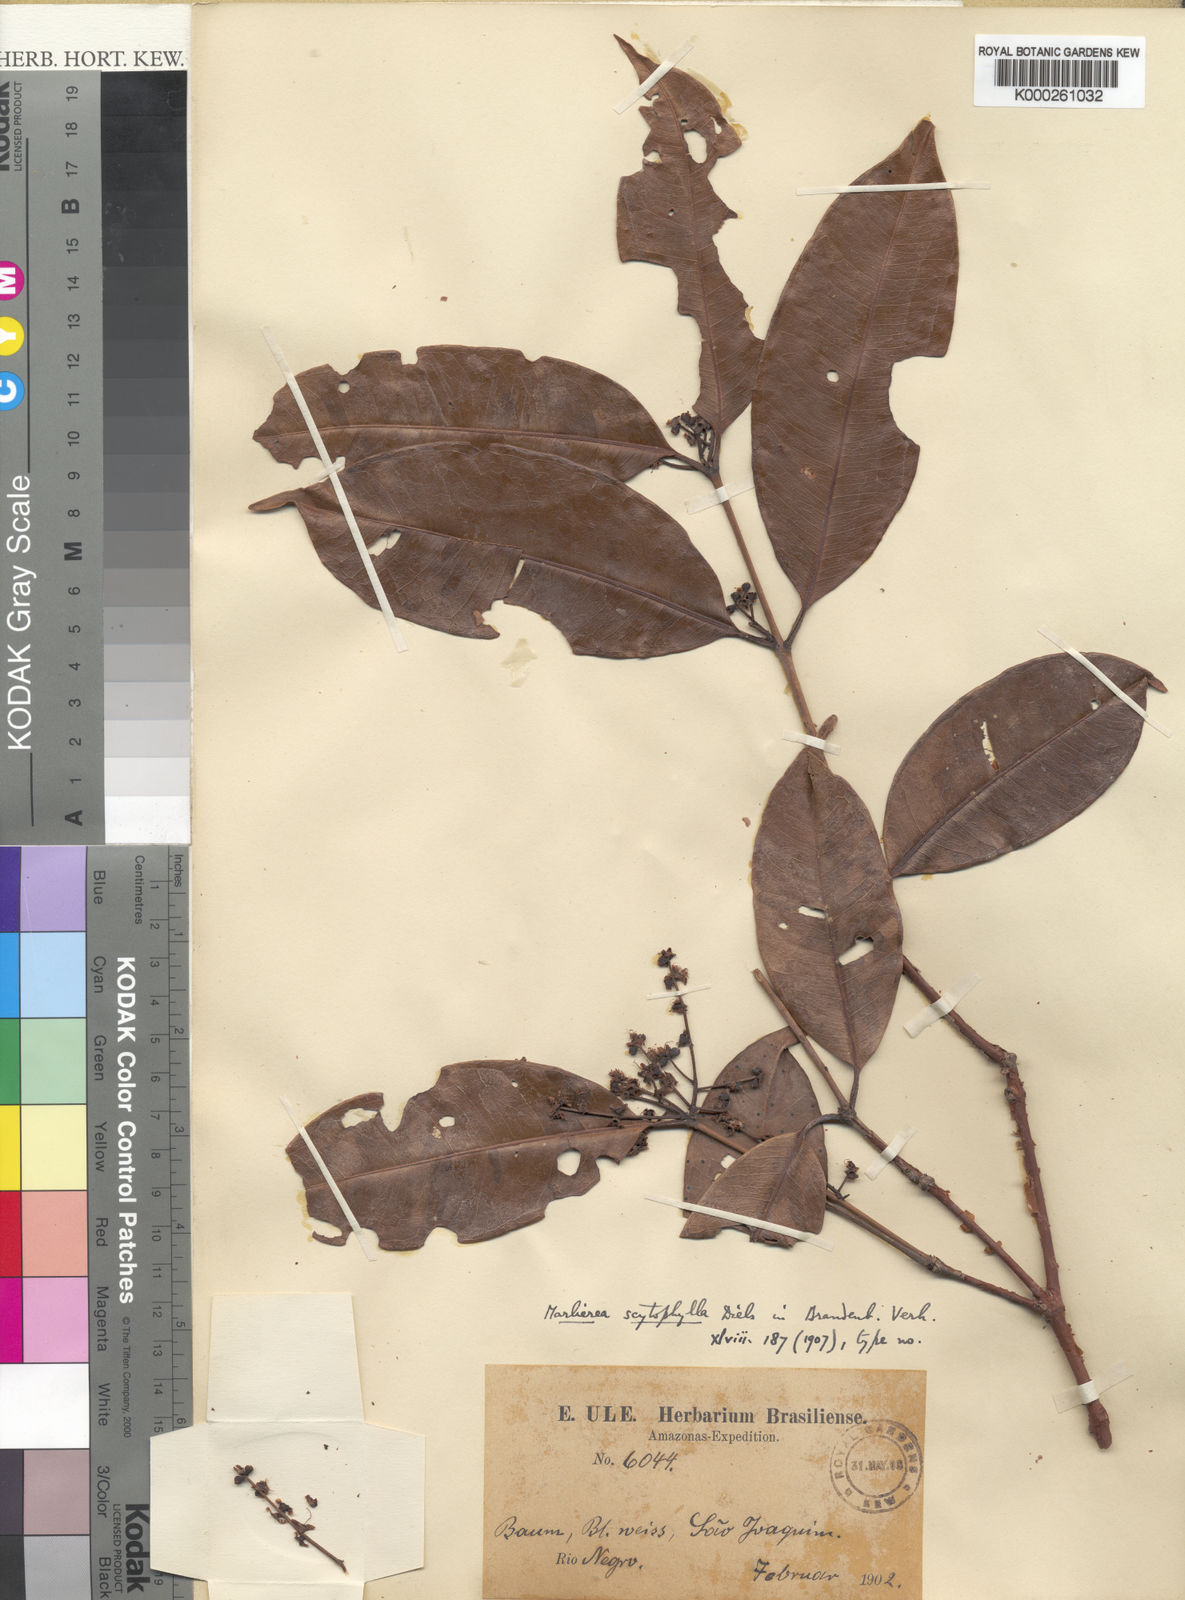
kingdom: Plantae
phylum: Tracheophyta
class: Magnoliopsida
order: Myrtales
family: Myrtaceae
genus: Marlierea
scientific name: Marlierea
